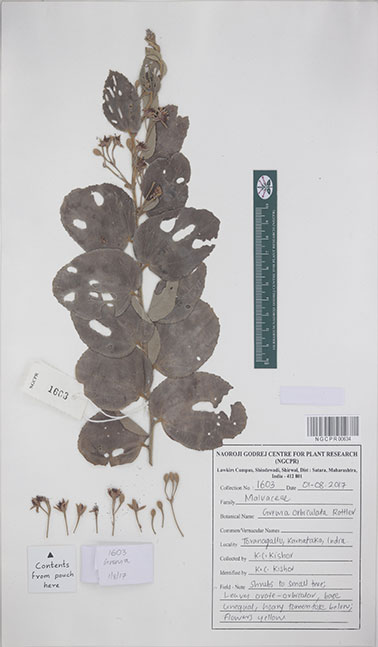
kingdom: Plantae
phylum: Tracheophyta
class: Magnoliopsida
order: Malvales
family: Malvaceae
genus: Grewia
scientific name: Grewia orbiculata
